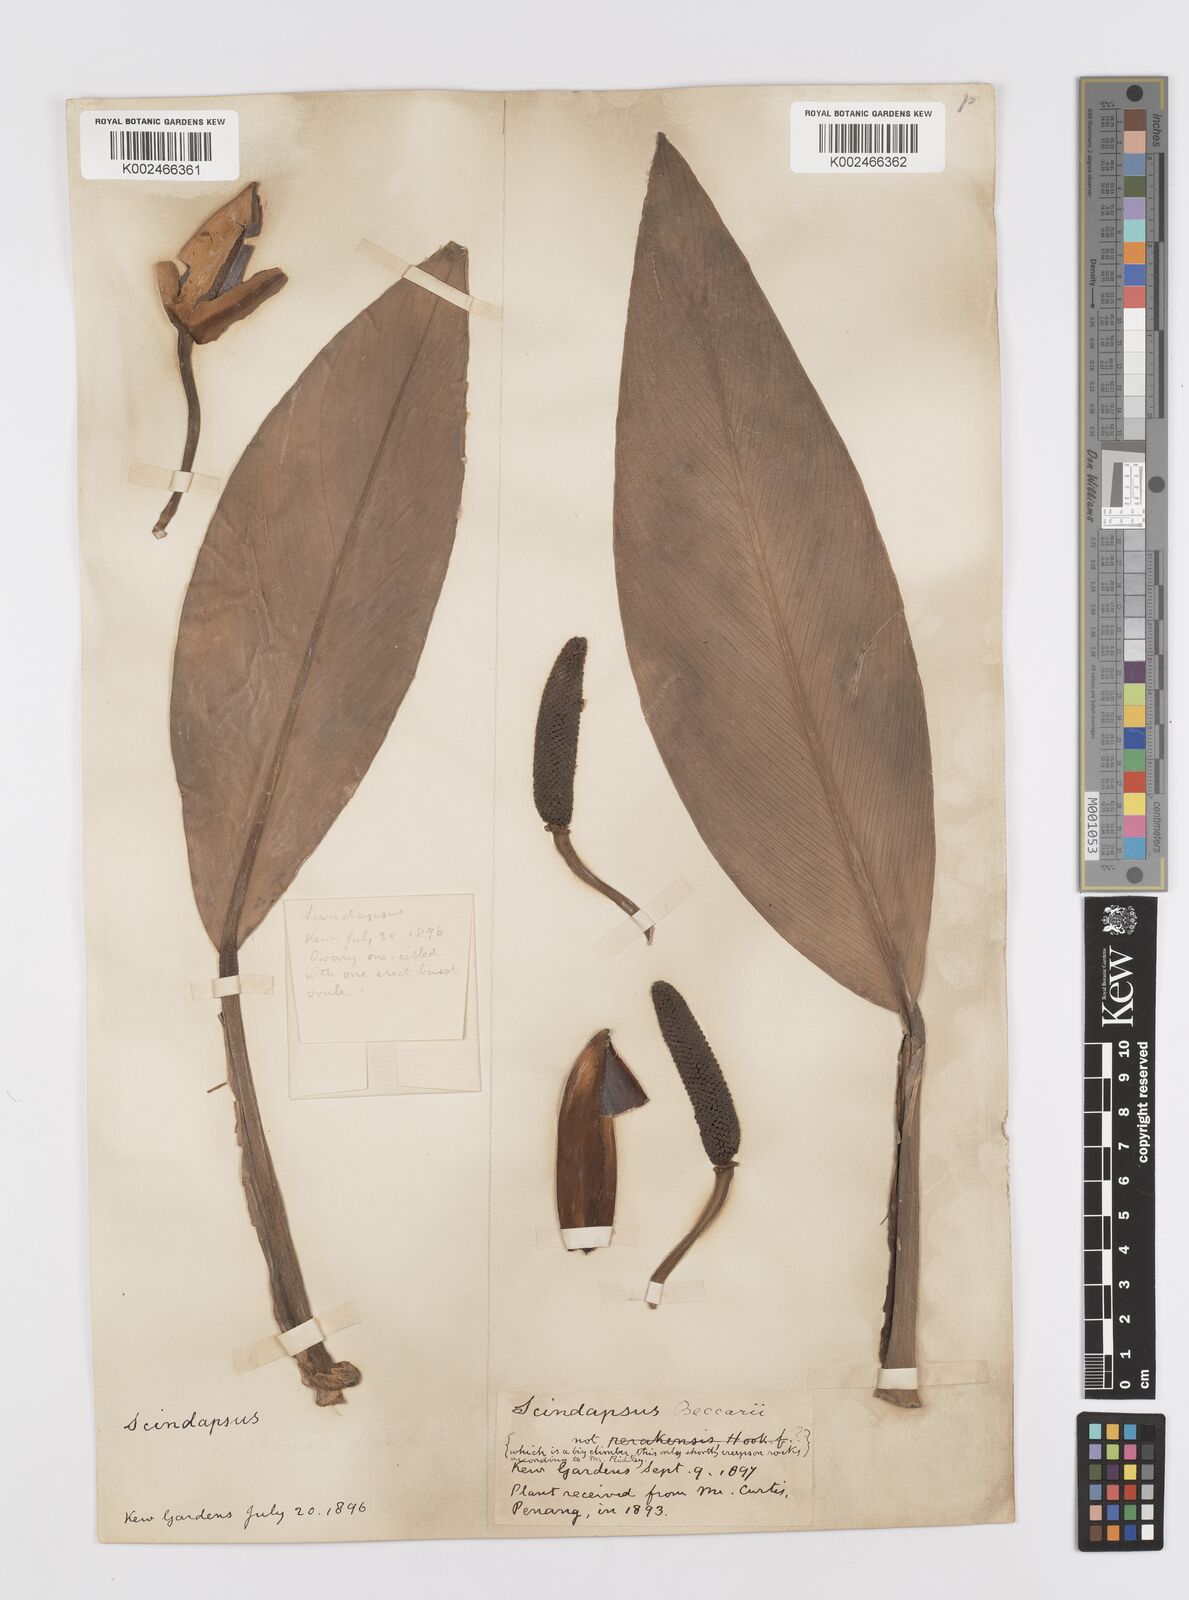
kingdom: Plantae
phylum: Tracheophyta
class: Liliopsida
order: Alismatales
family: Araceae
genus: Scindapsus
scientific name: Scindapsus beccarii
